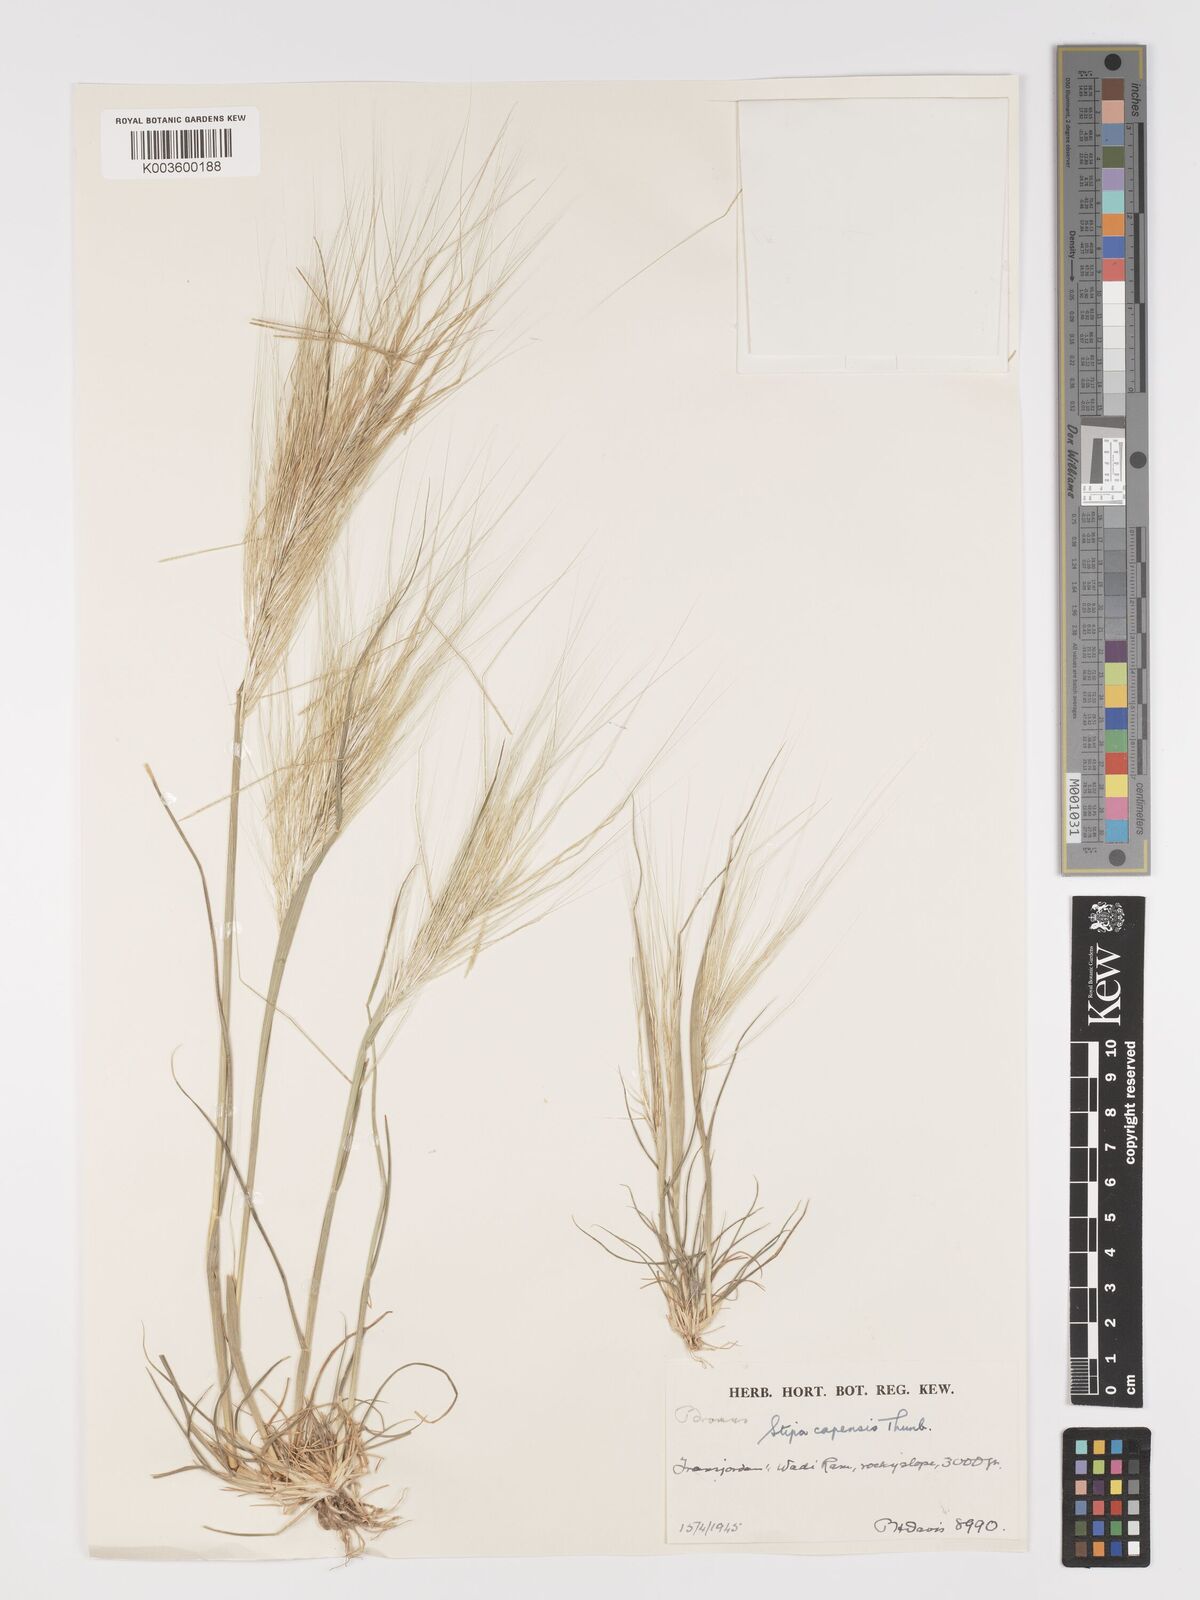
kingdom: Plantae
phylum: Tracheophyta
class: Liliopsida
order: Poales
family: Poaceae
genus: Stipellula
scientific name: Stipellula capensis
